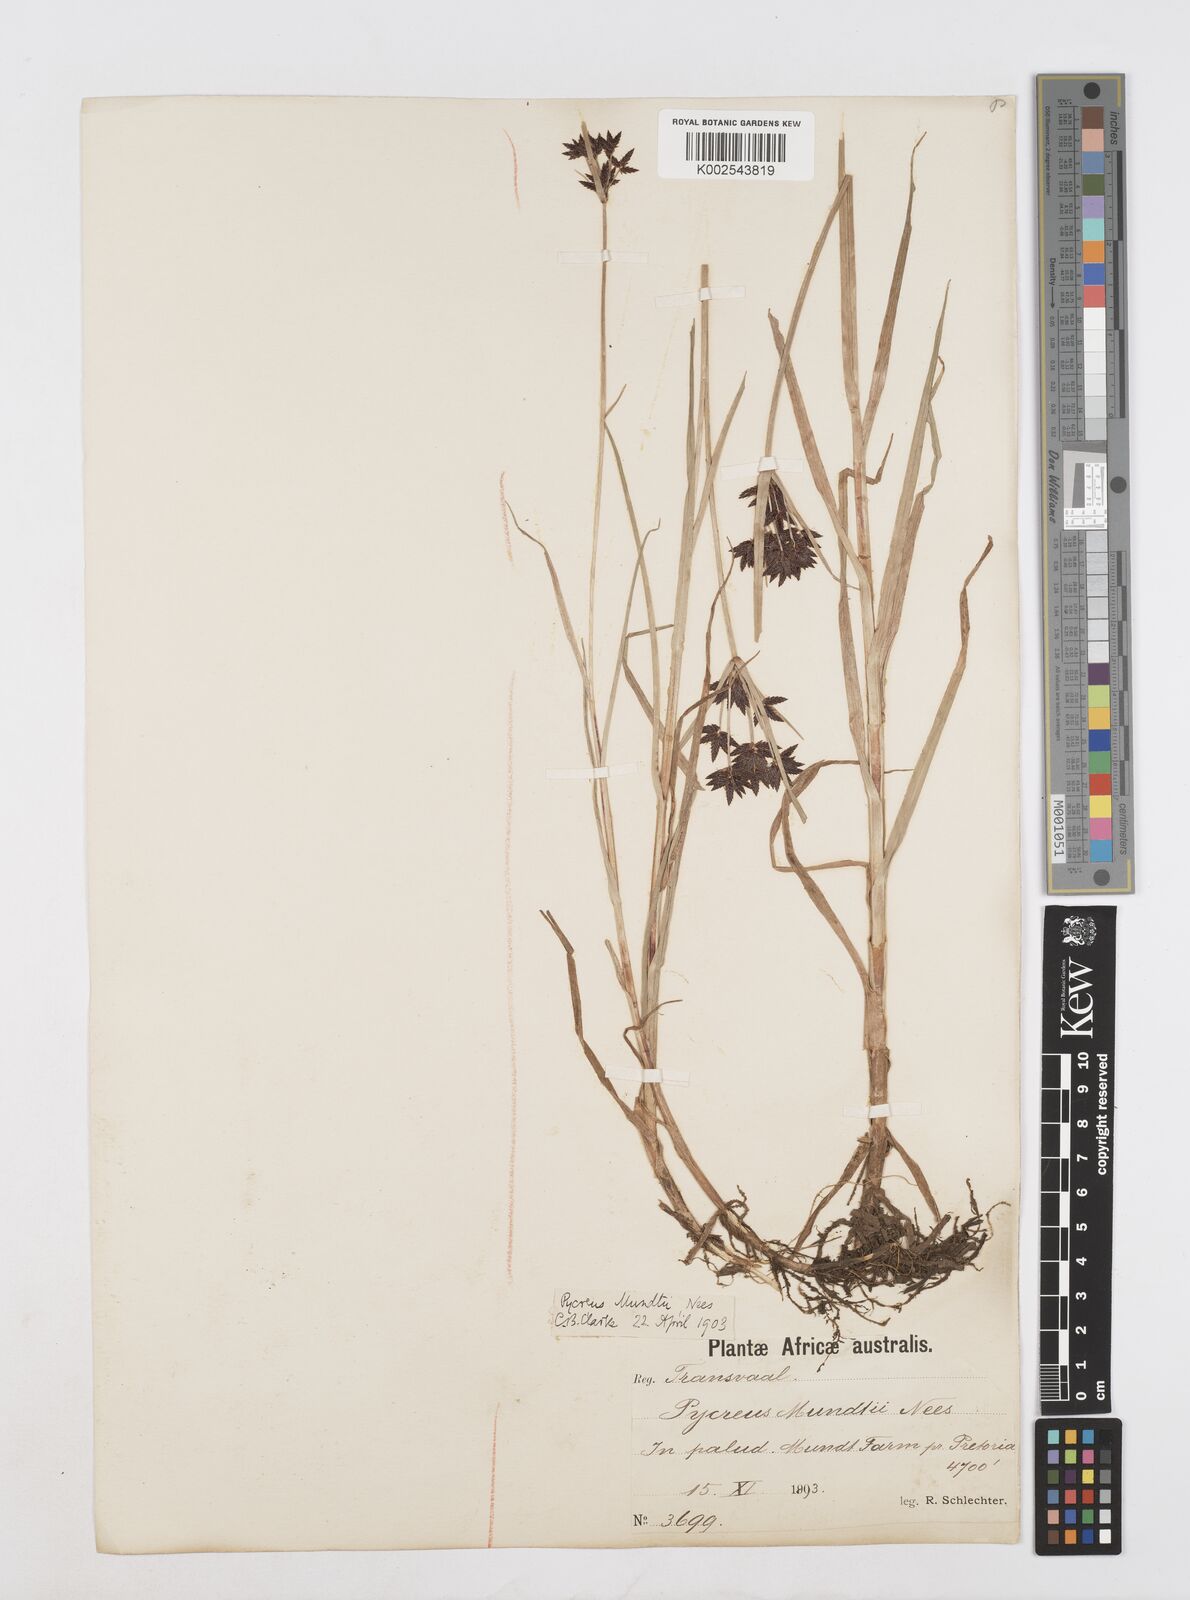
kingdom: Plantae
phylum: Tracheophyta
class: Liliopsida
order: Poales
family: Cyperaceae
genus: Cyperus
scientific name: Cyperus mundii
